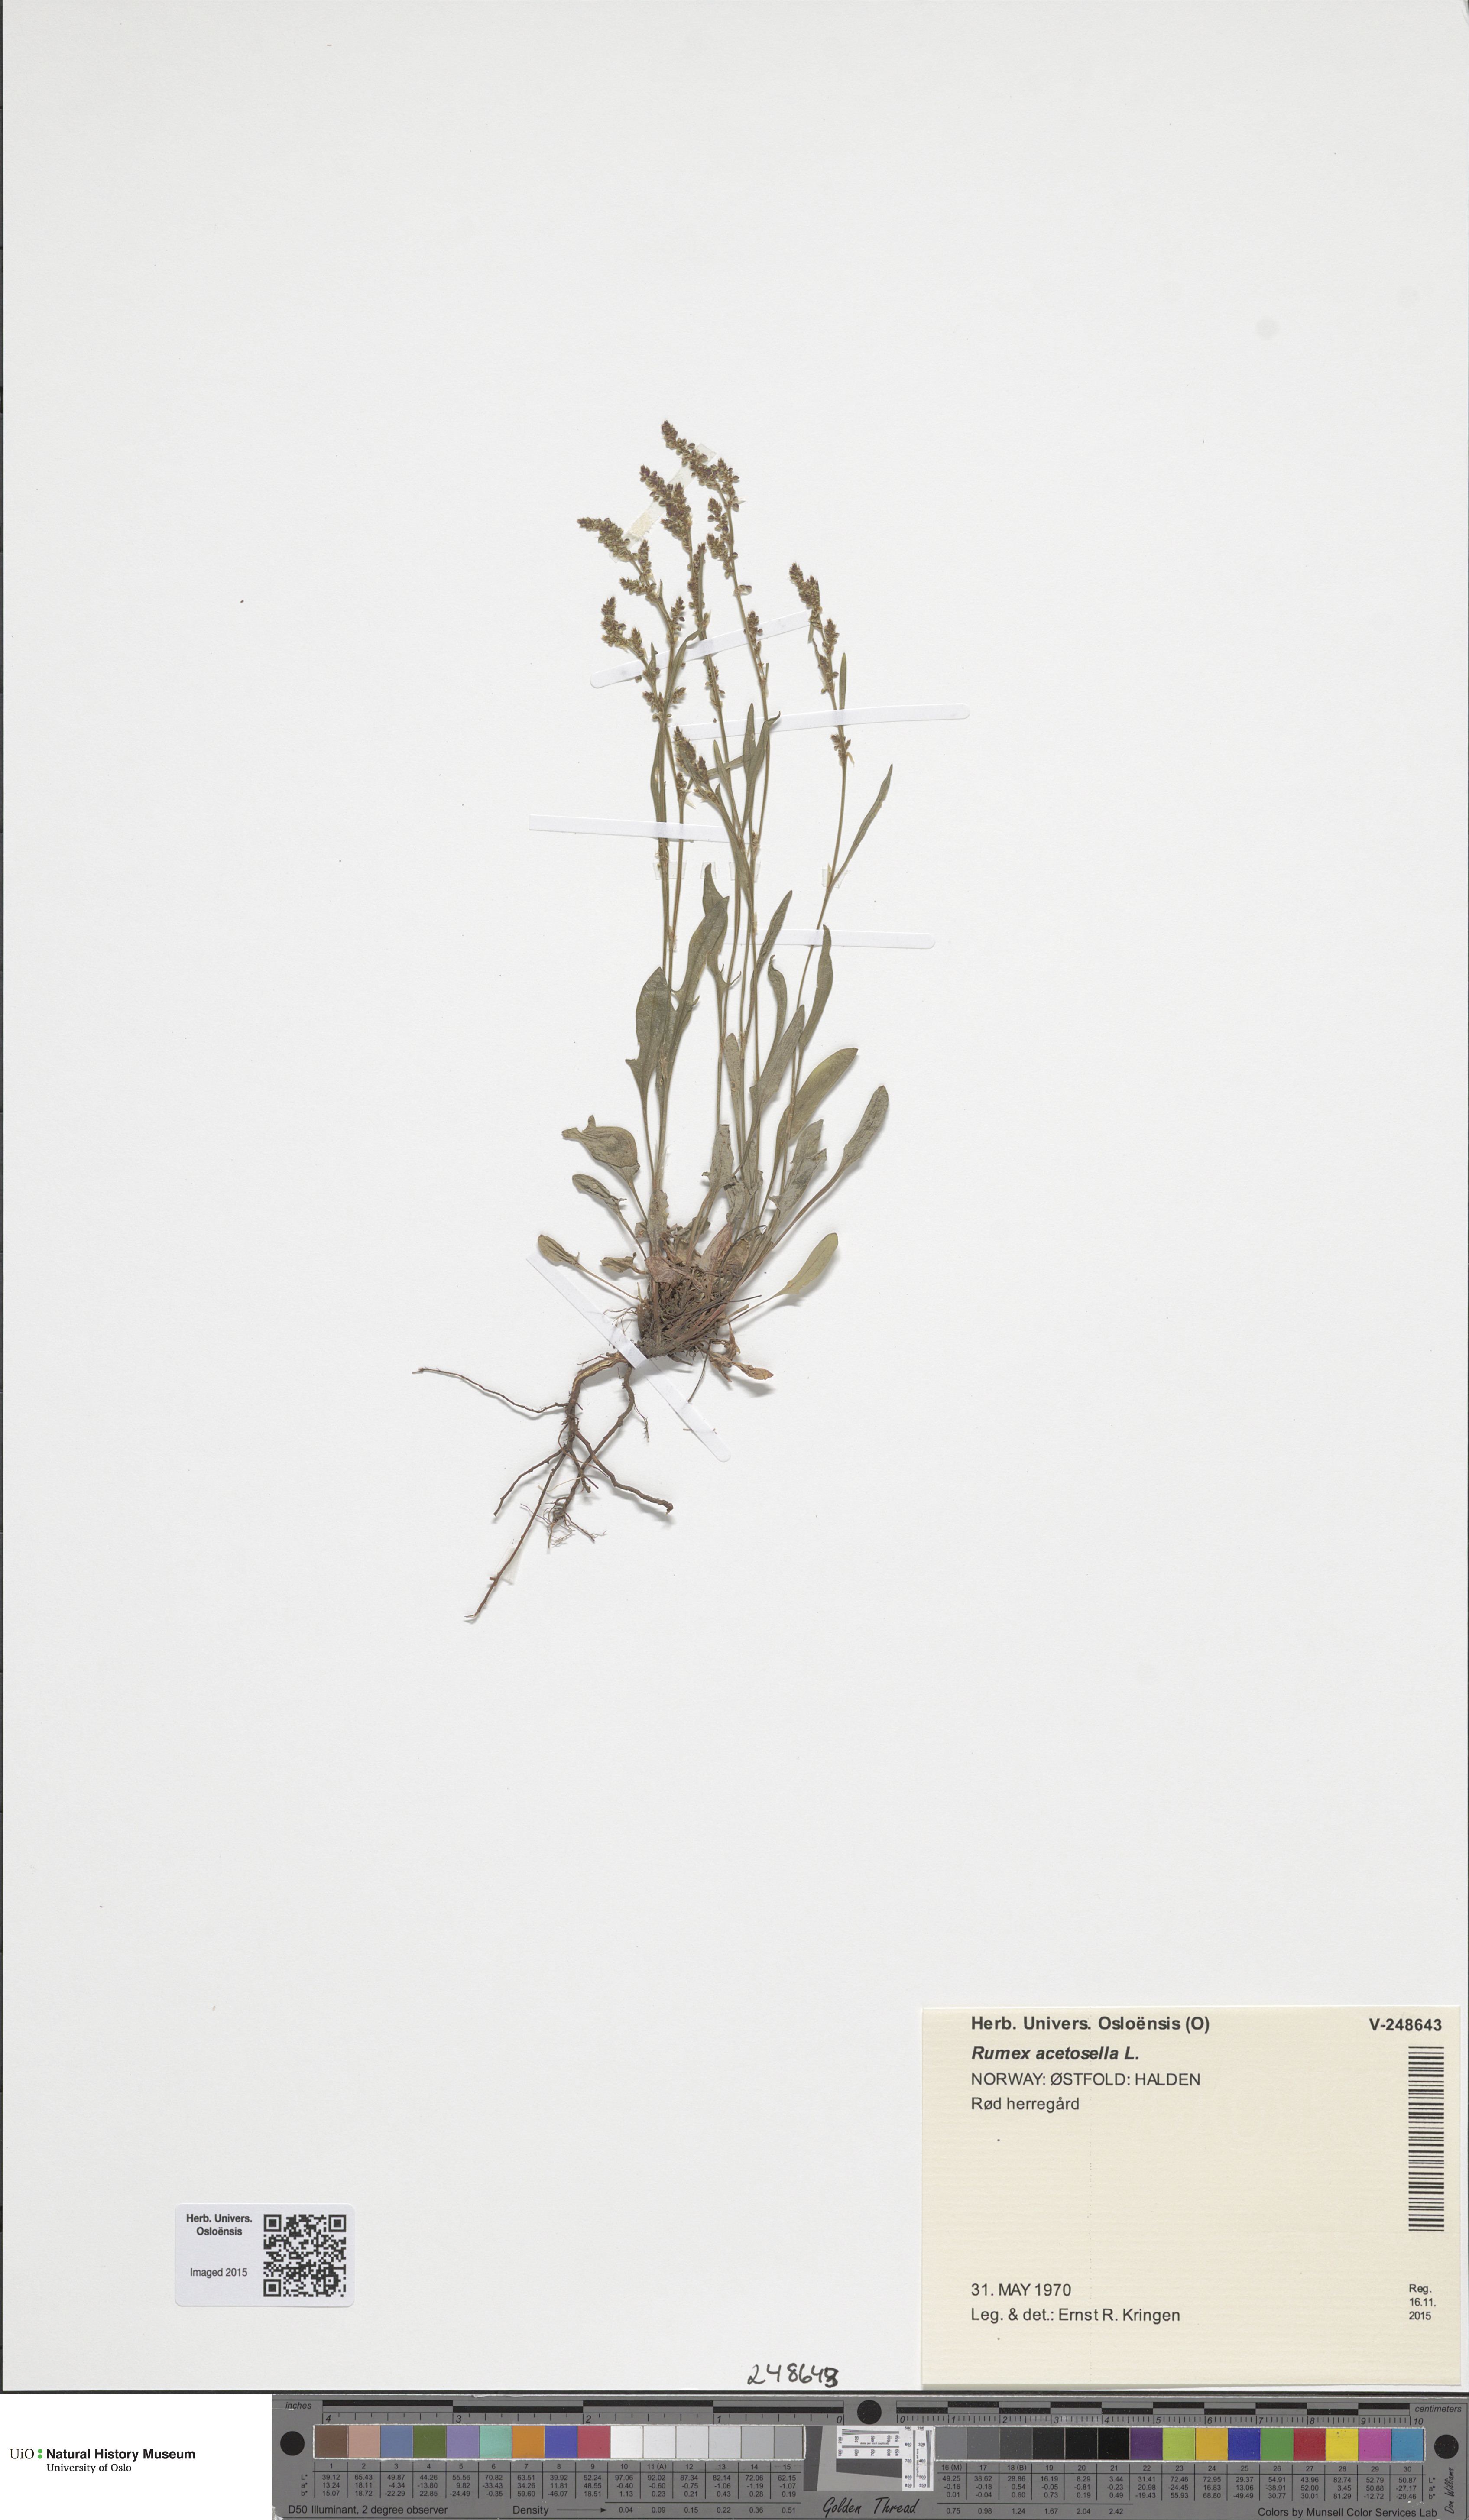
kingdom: Plantae
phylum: Tracheophyta
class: Magnoliopsida
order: Caryophyllales
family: Polygonaceae
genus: Rumex
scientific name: Rumex acetosella
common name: Common sheep sorrel
